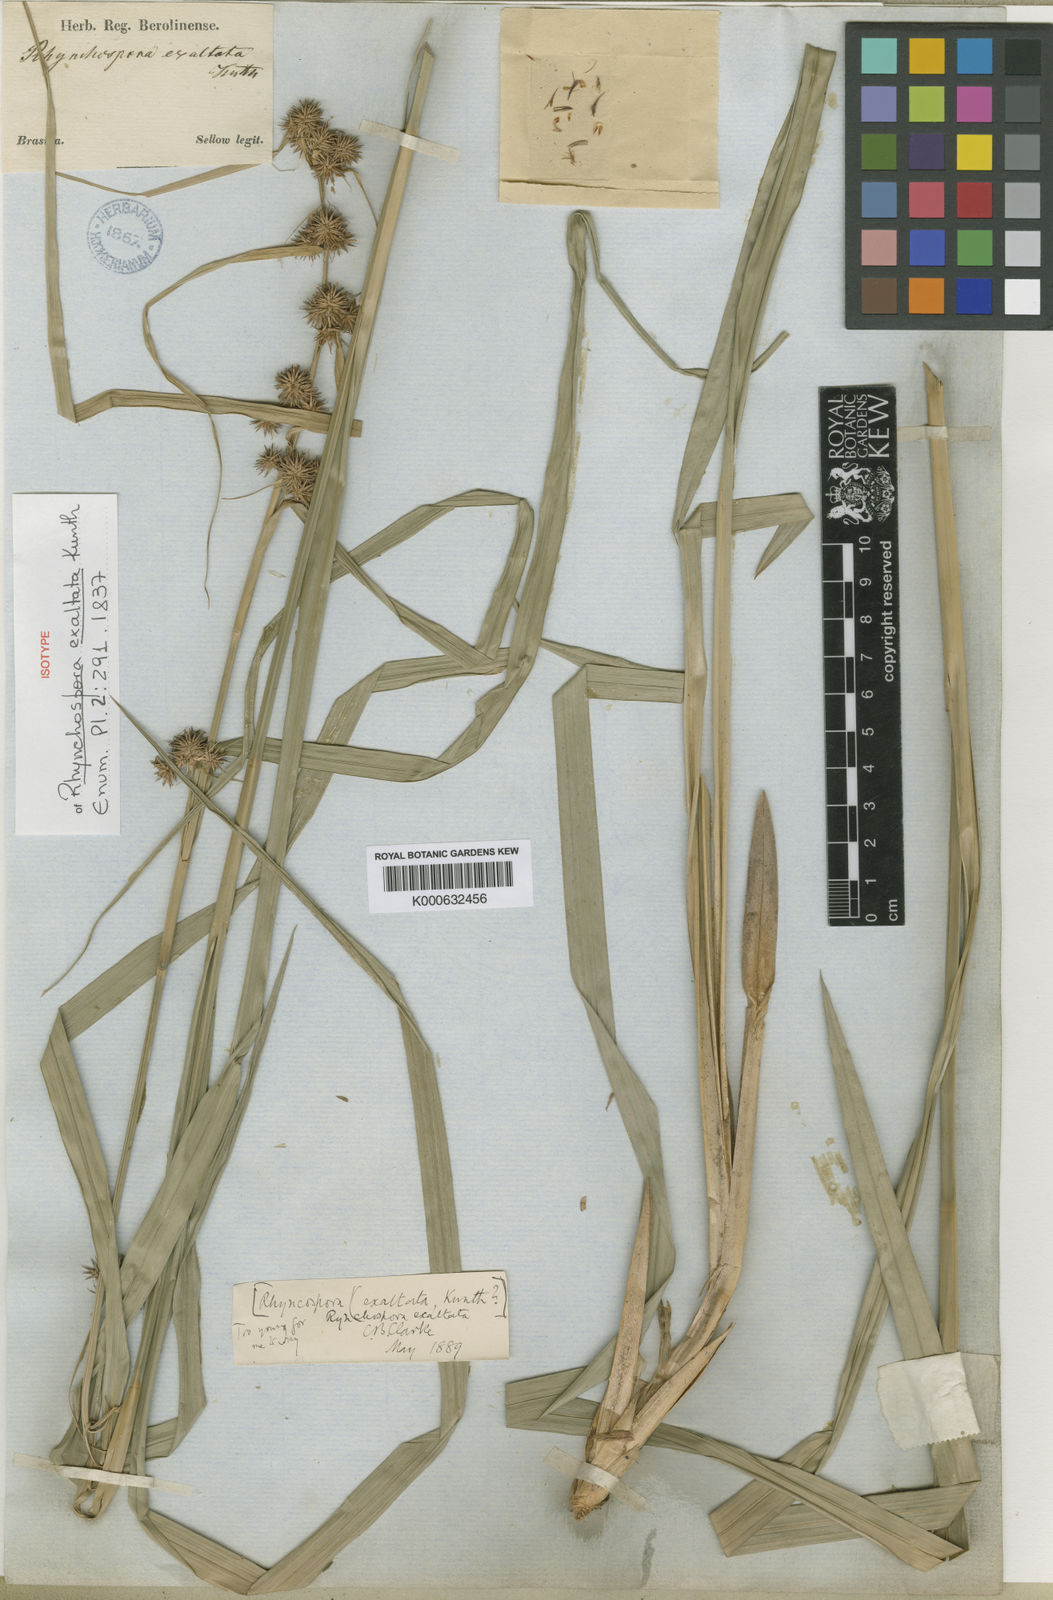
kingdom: Plantae
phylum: Tracheophyta
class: Liliopsida
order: Poales
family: Cyperaceae
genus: Rhynchospora
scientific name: Rhynchospora exaltata
